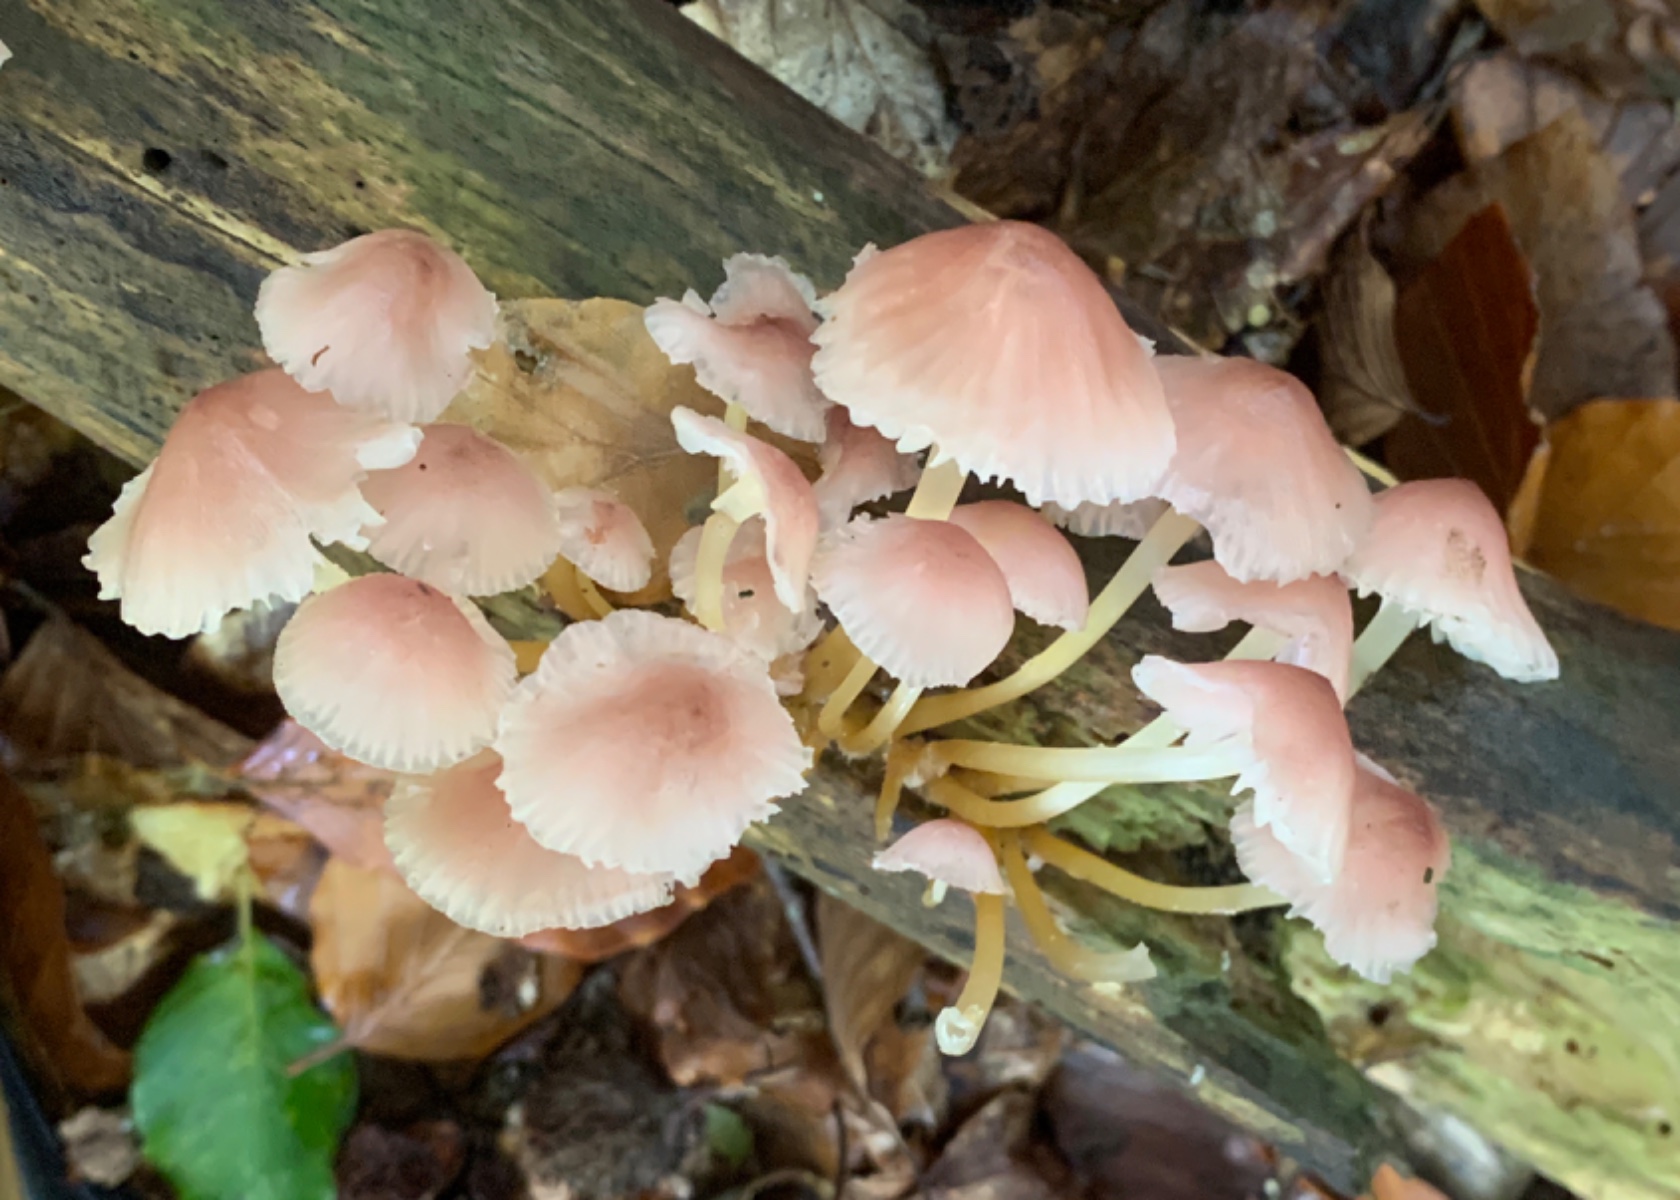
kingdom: Fungi
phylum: Basidiomycota
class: Agaricomycetes
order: Agaricales
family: Mycenaceae
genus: Mycena
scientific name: Mycena renati
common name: smuk huesvamp
